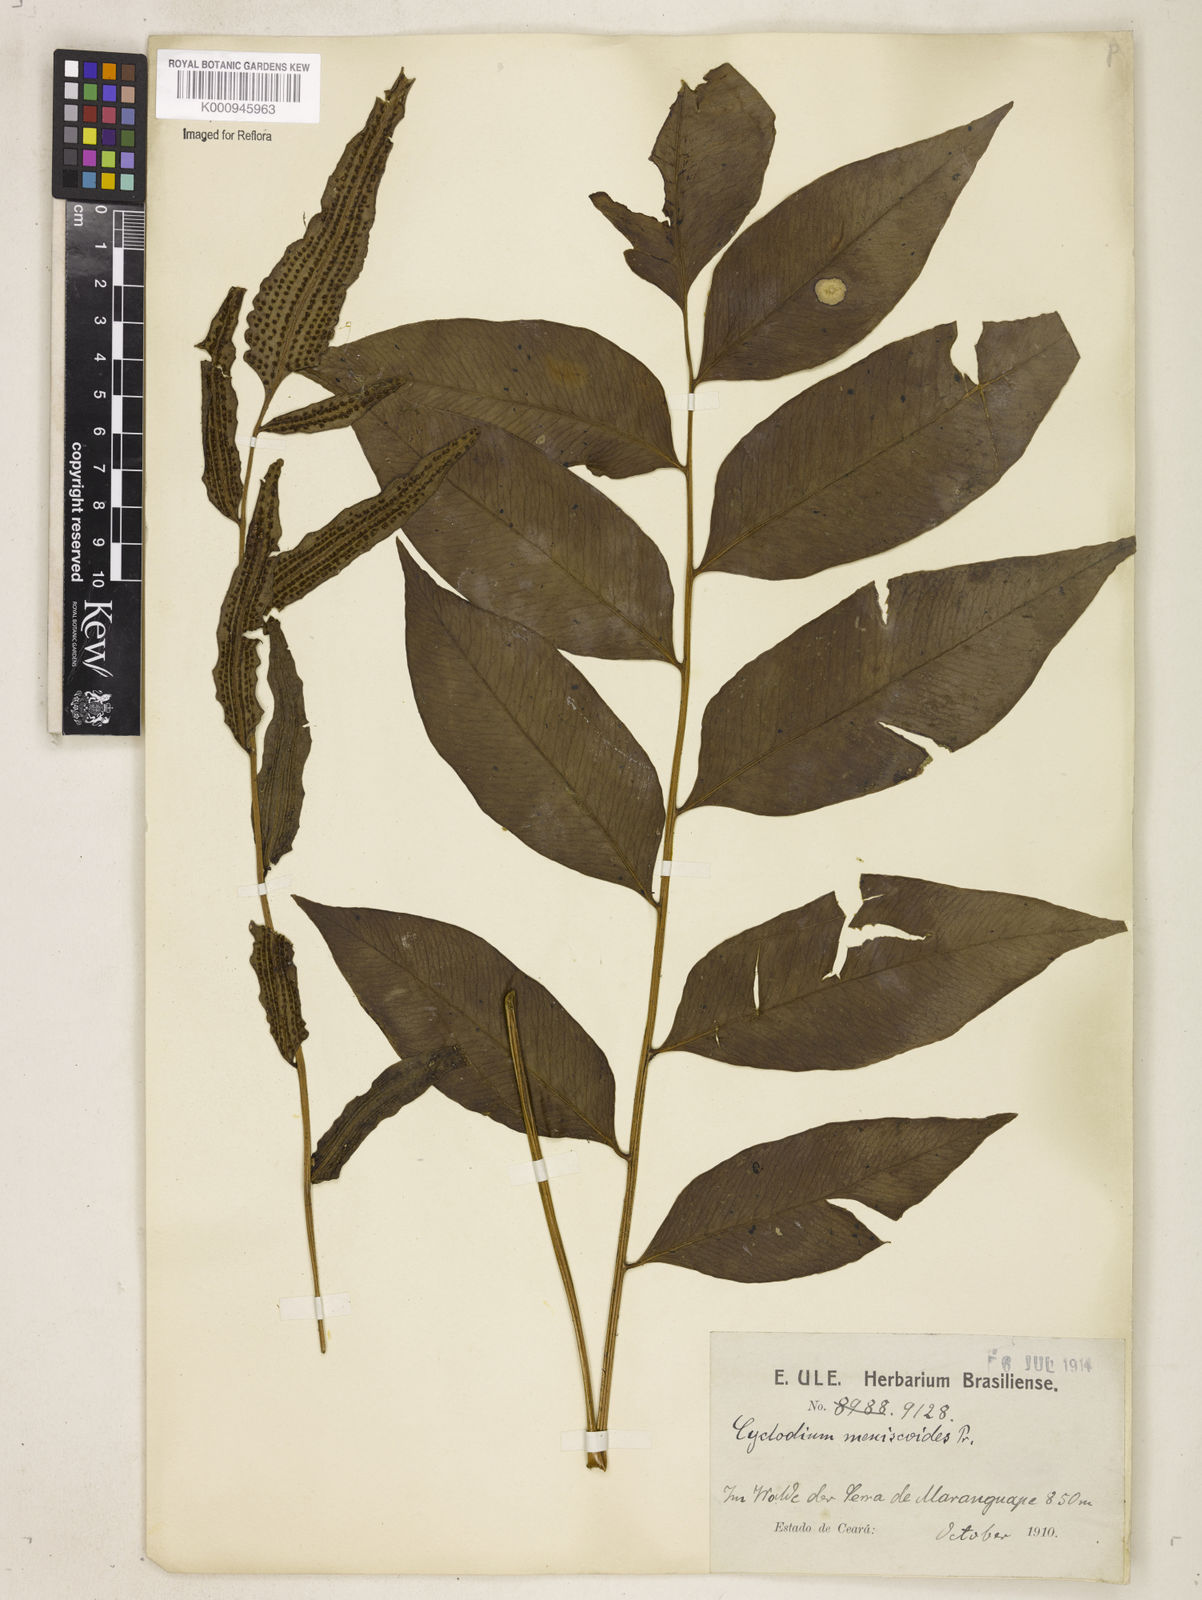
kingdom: Plantae
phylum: Tracheophyta
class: Polypodiopsida
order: Polypodiales
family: Dryopteridaceae
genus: Cyclodium
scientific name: Cyclodium meniscioides
